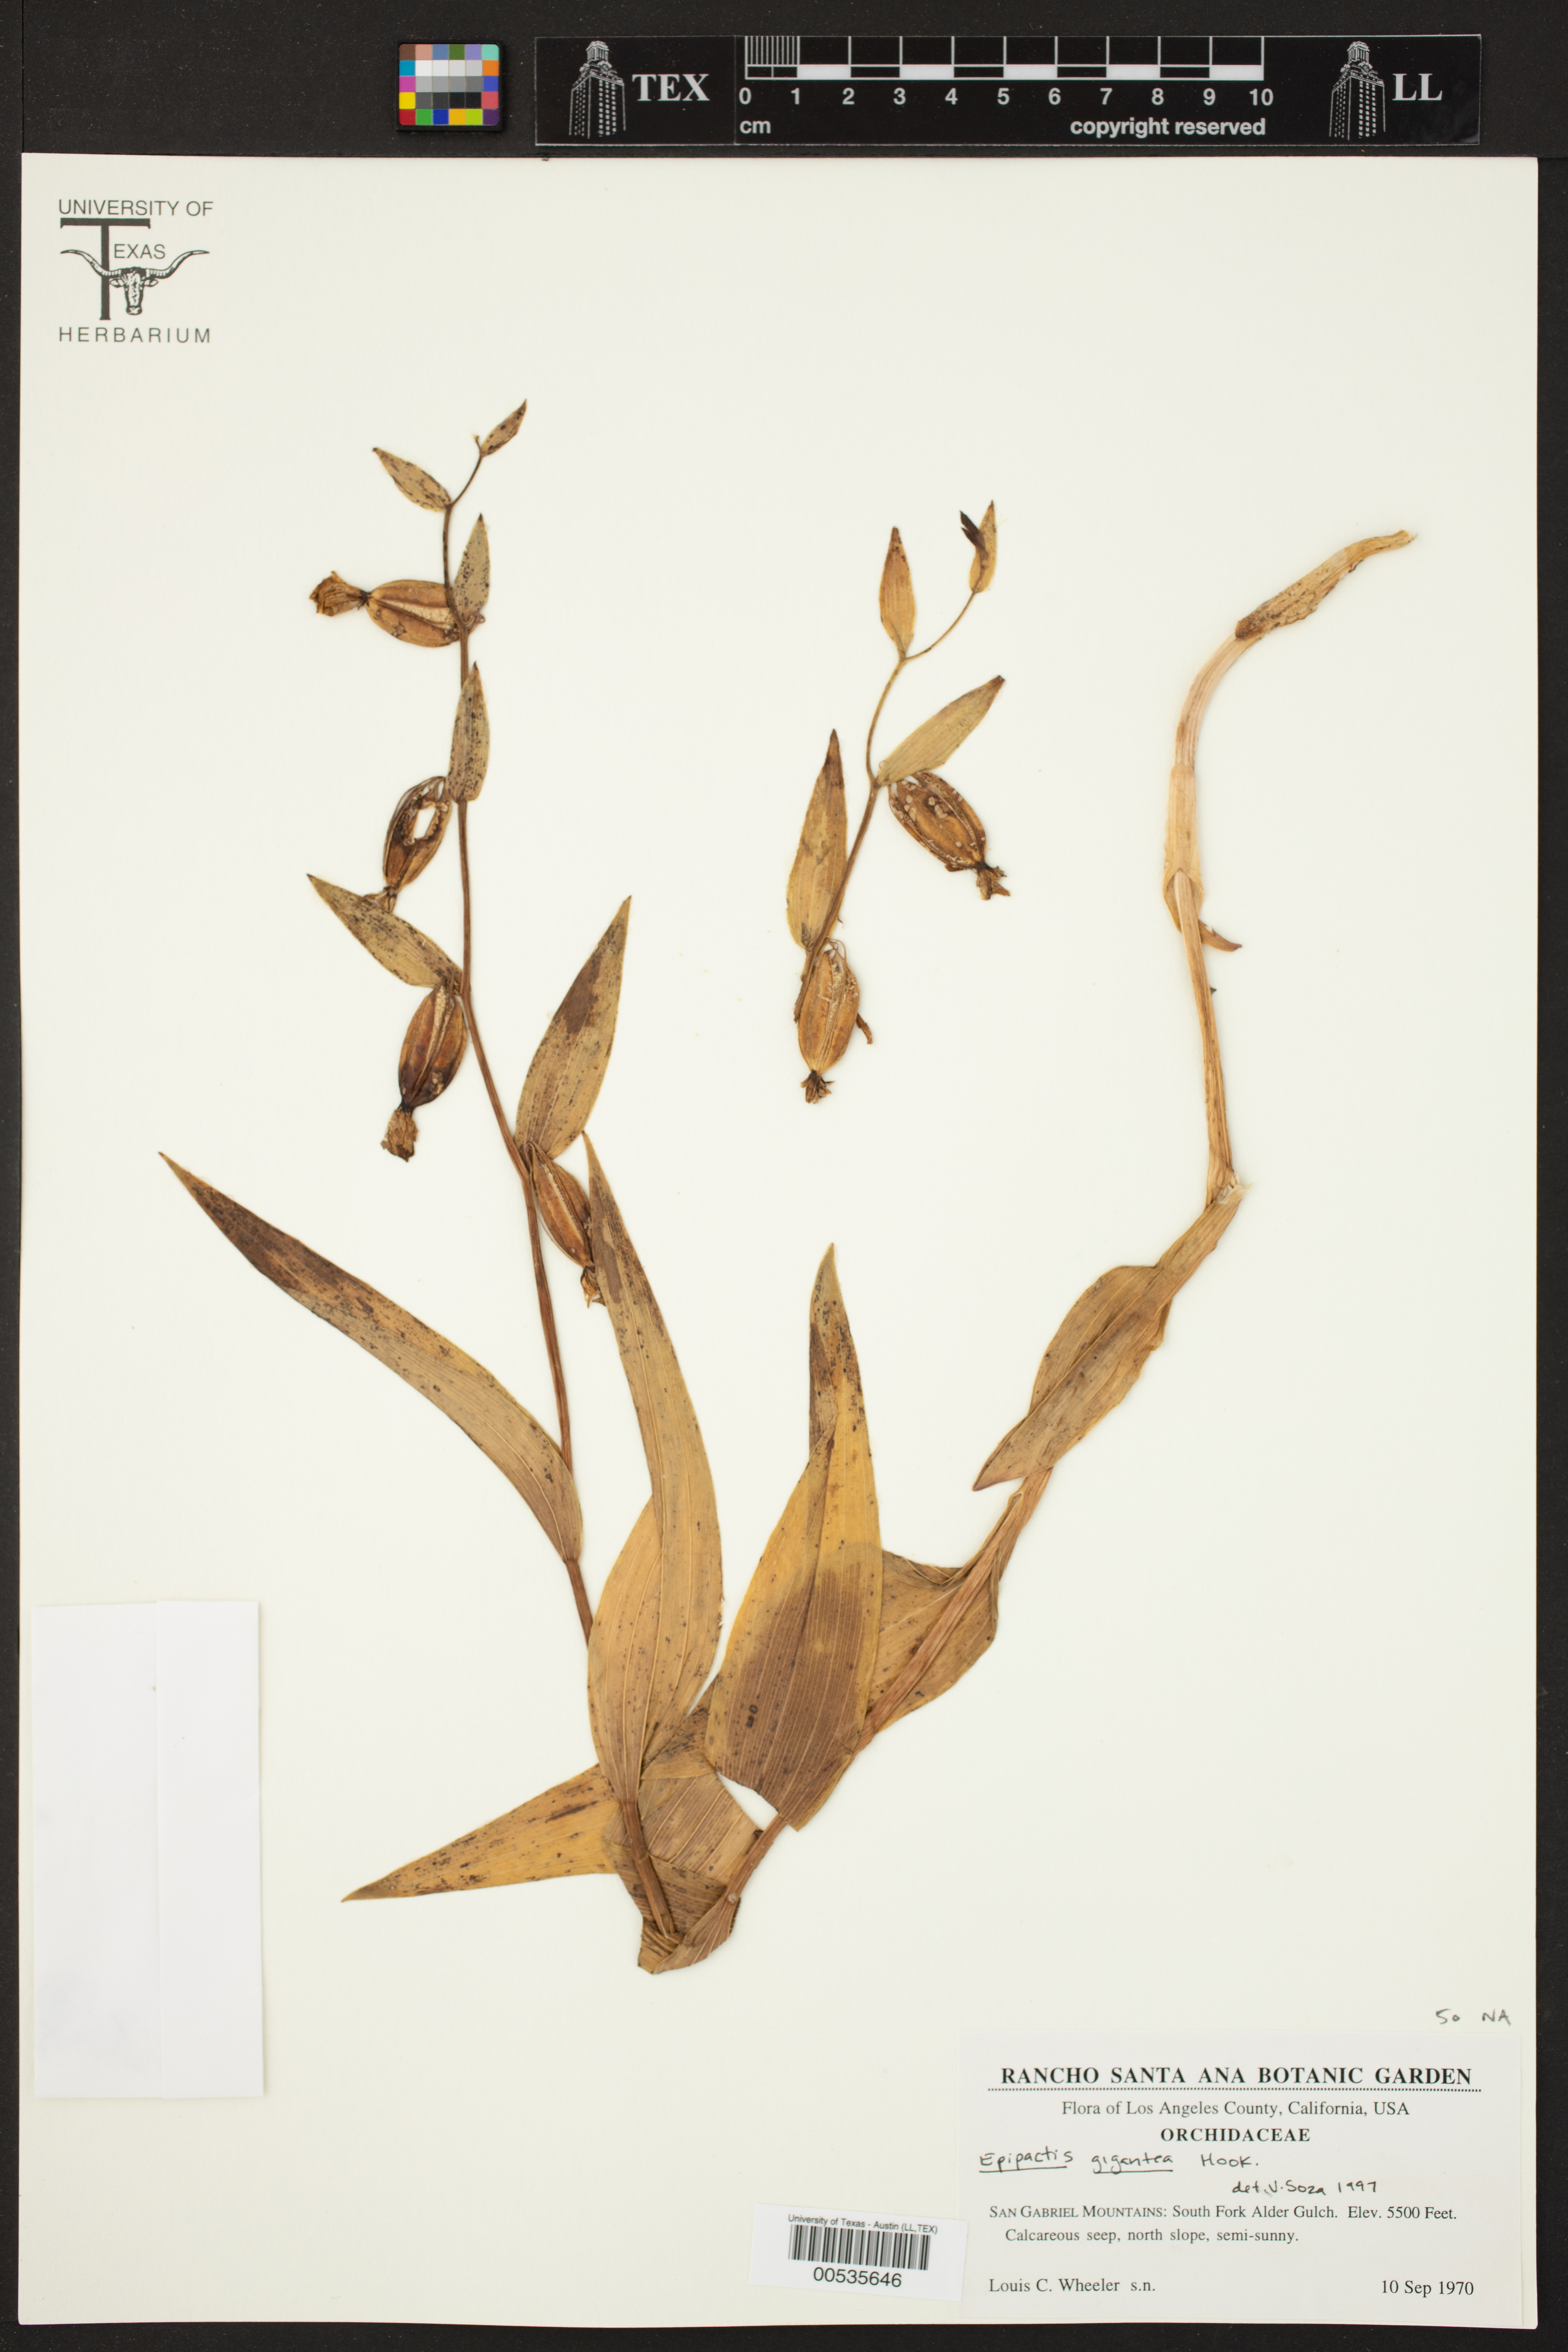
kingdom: Plantae
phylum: Tracheophyta
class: Liliopsida
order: Asparagales
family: Orchidaceae
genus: Epipactis
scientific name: Epipactis gigantea
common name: Chatterbox
